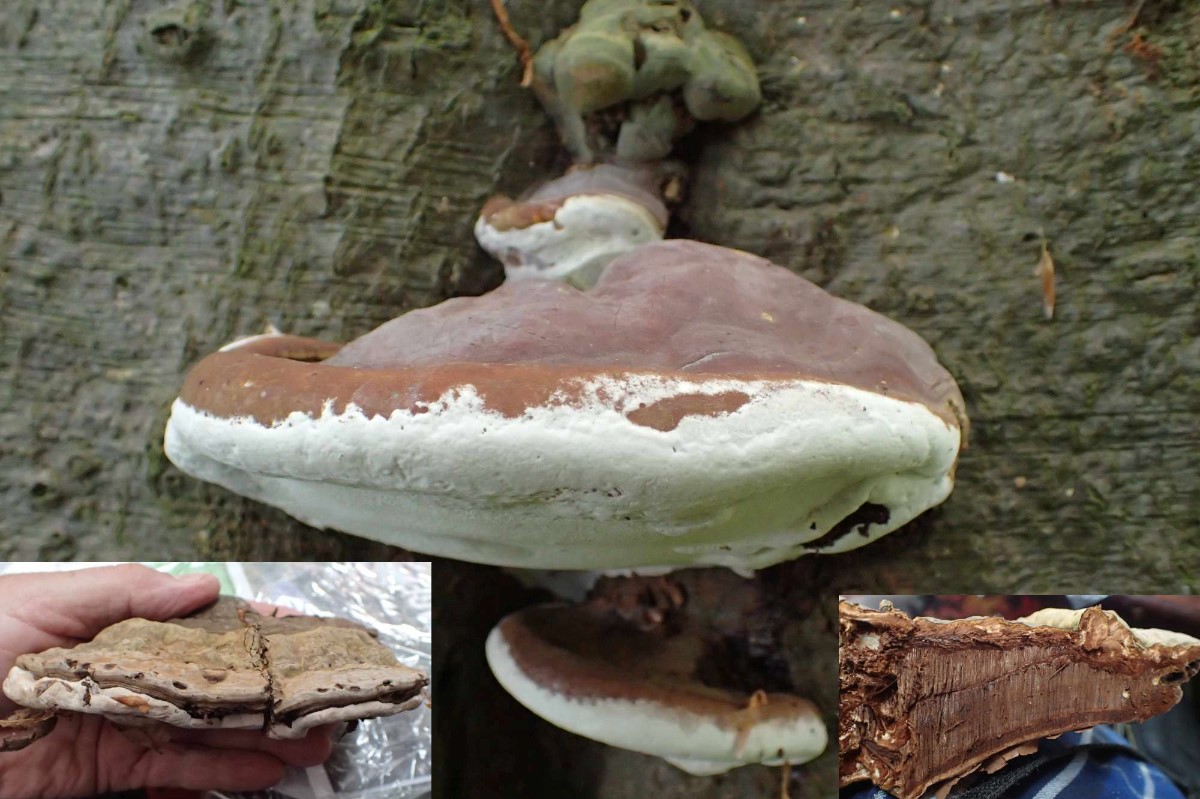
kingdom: Fungi
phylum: Basidiomycota
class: Agaricomycetes
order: Polyporales
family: Polyporaceae
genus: Ganoderma
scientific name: Ganoderma
